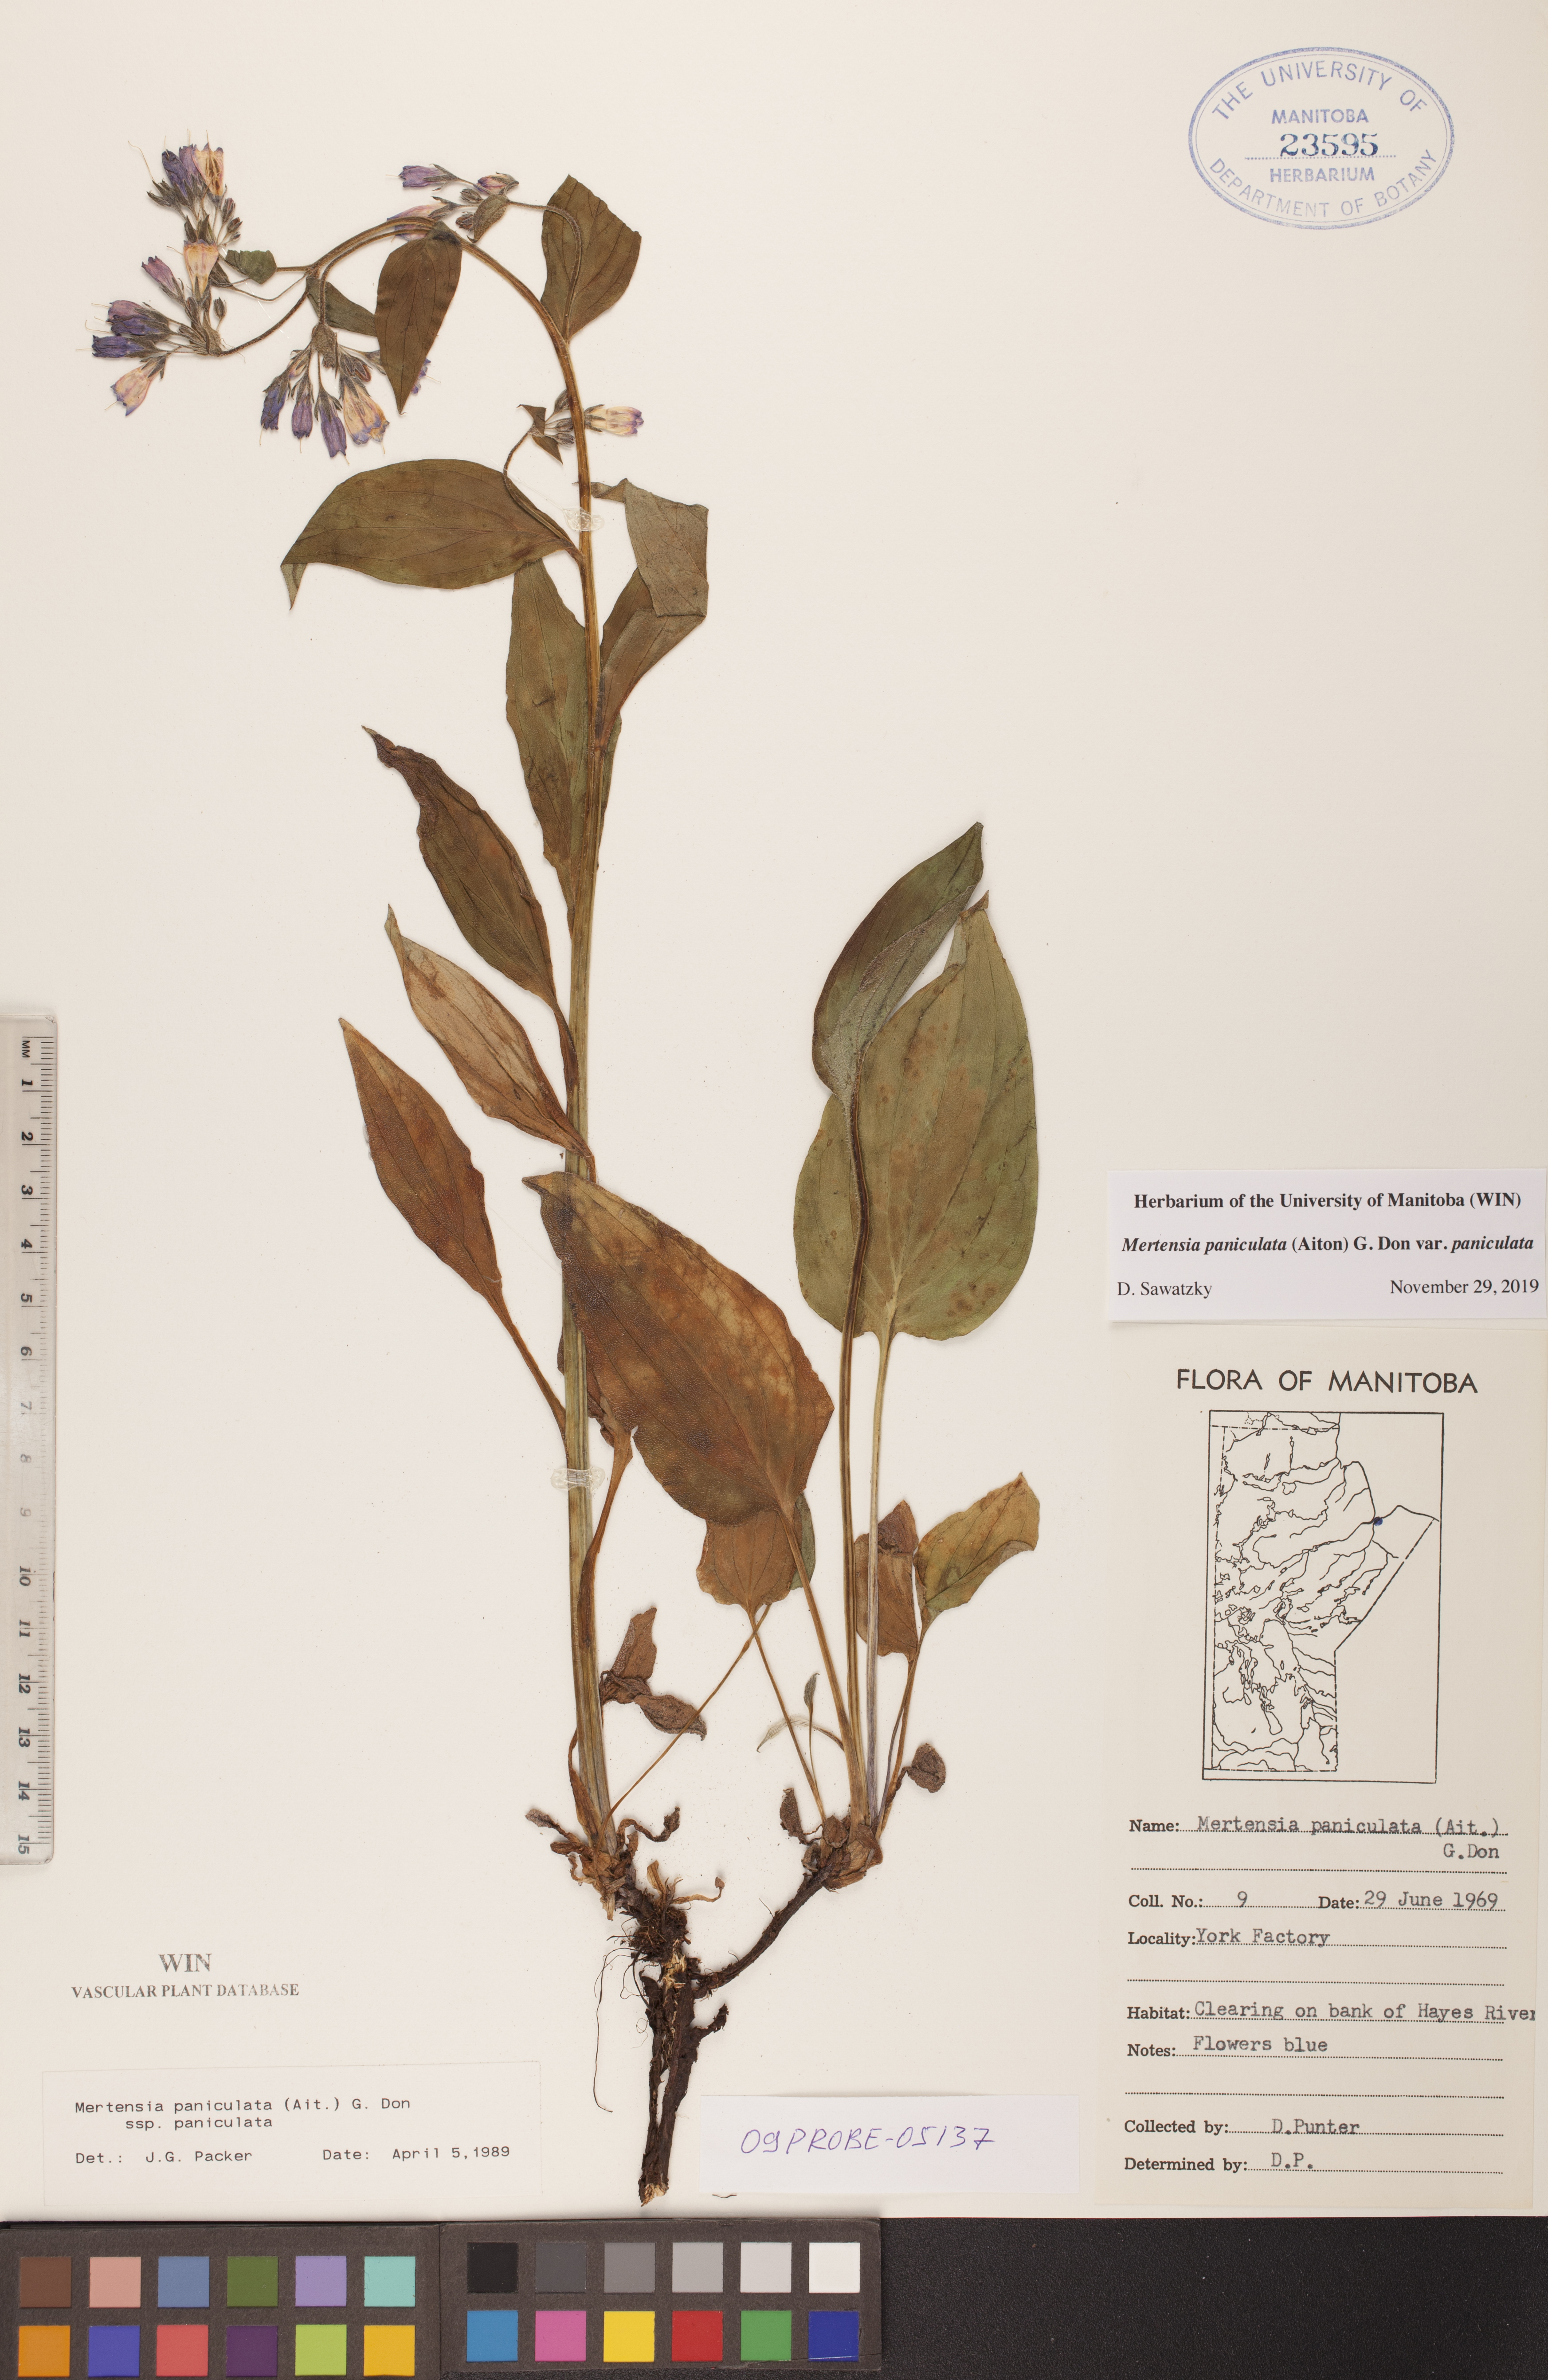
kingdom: Plantae
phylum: Tracheophyta
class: Magnoliopsida
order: Boraginales
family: Boraginaceae
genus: Mertensia
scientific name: Mertensia paniculata
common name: Panicled bluebells
